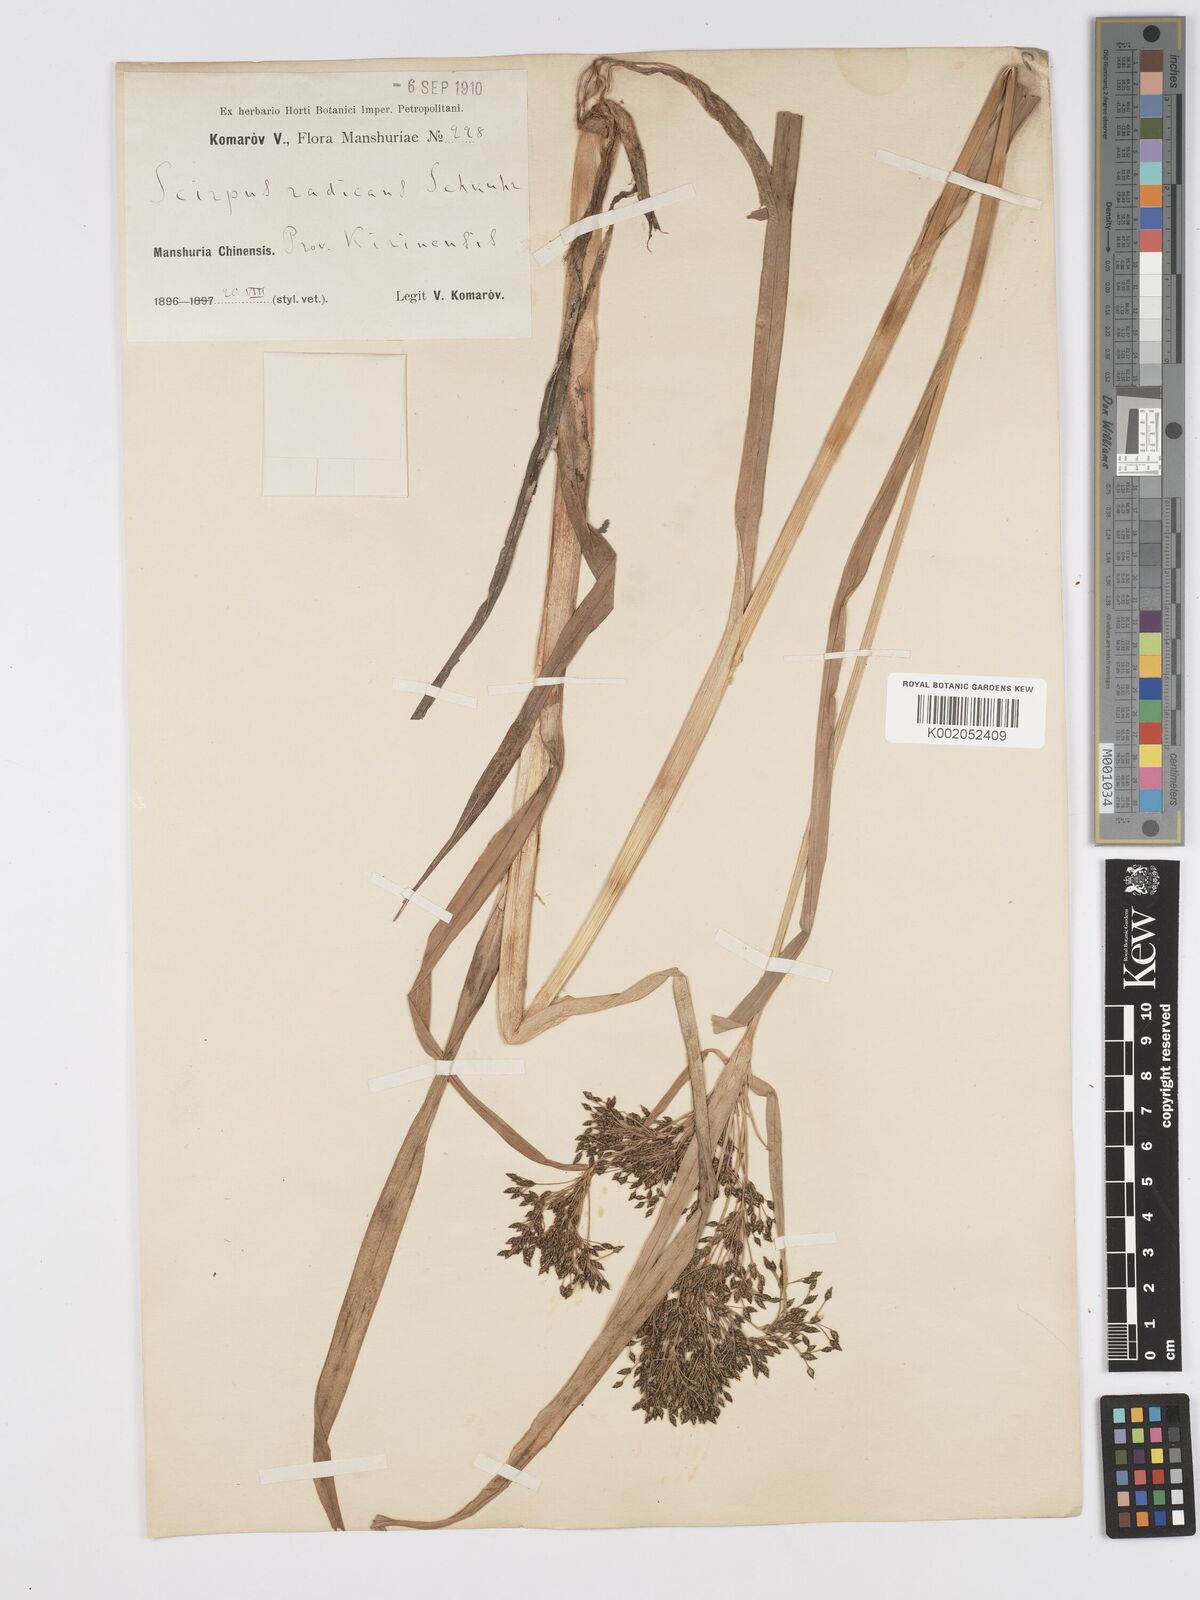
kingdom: Plantae
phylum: Tracheophyta
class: Liliopsida
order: Poales
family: Cyperaceae
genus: Scirpus
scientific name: Scirpus radicans
